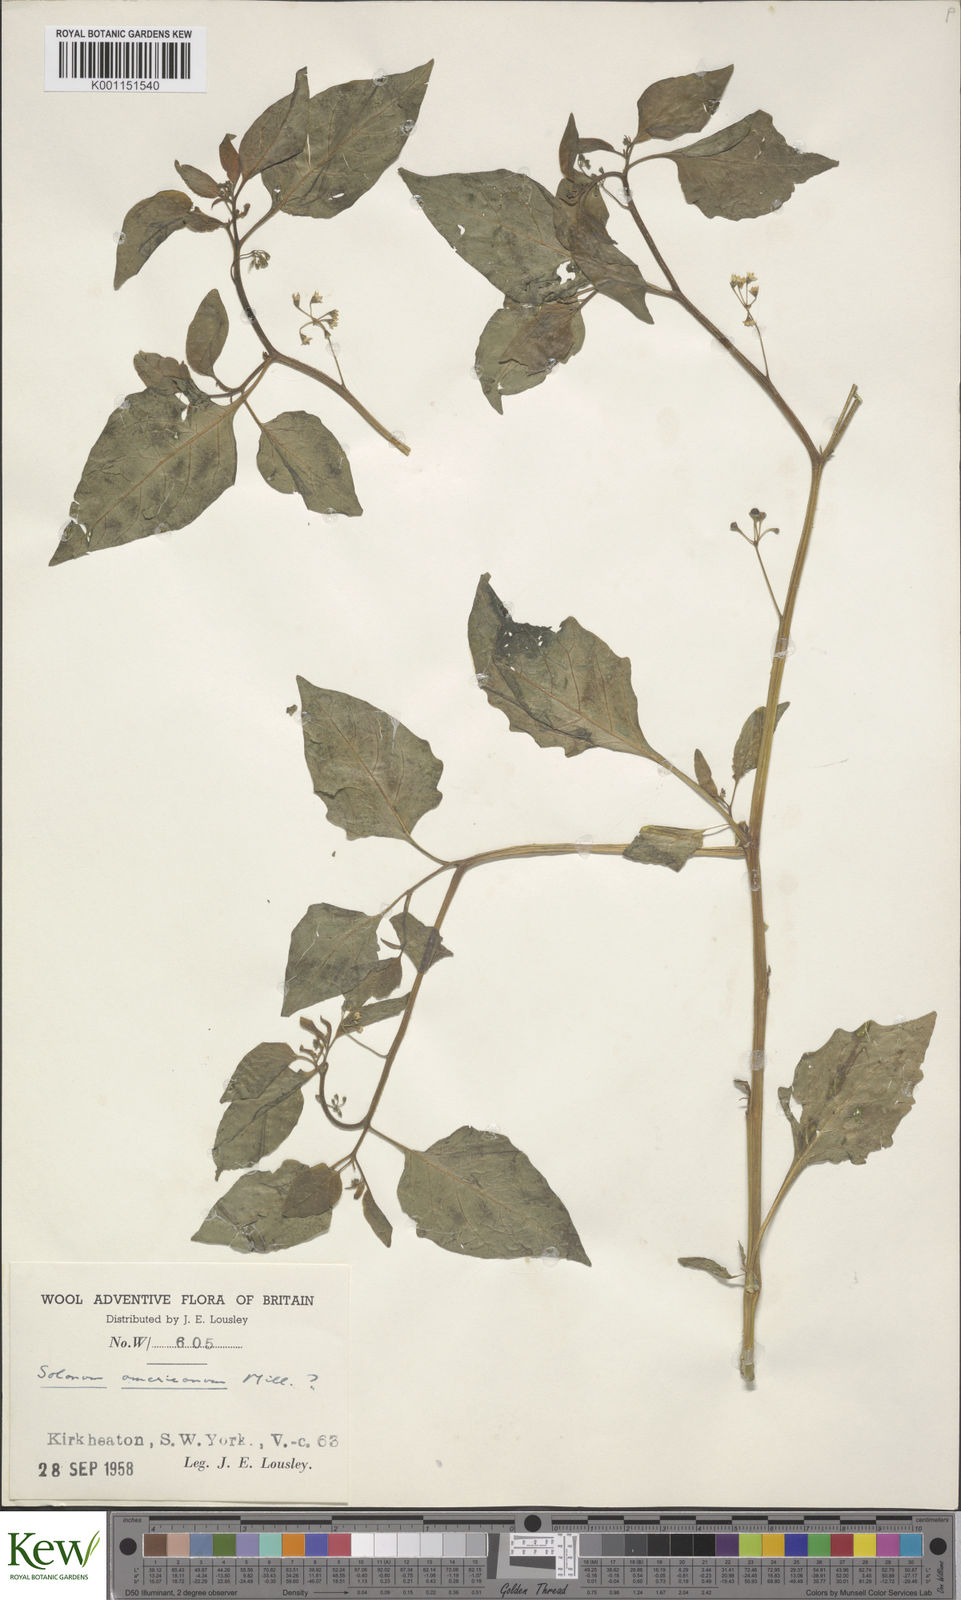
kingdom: Plantae
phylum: Tracheophyta
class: Magnoliopsida
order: Solanales
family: Solanaceae
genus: Solanum
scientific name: Solanum americanum
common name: American black nightshade
